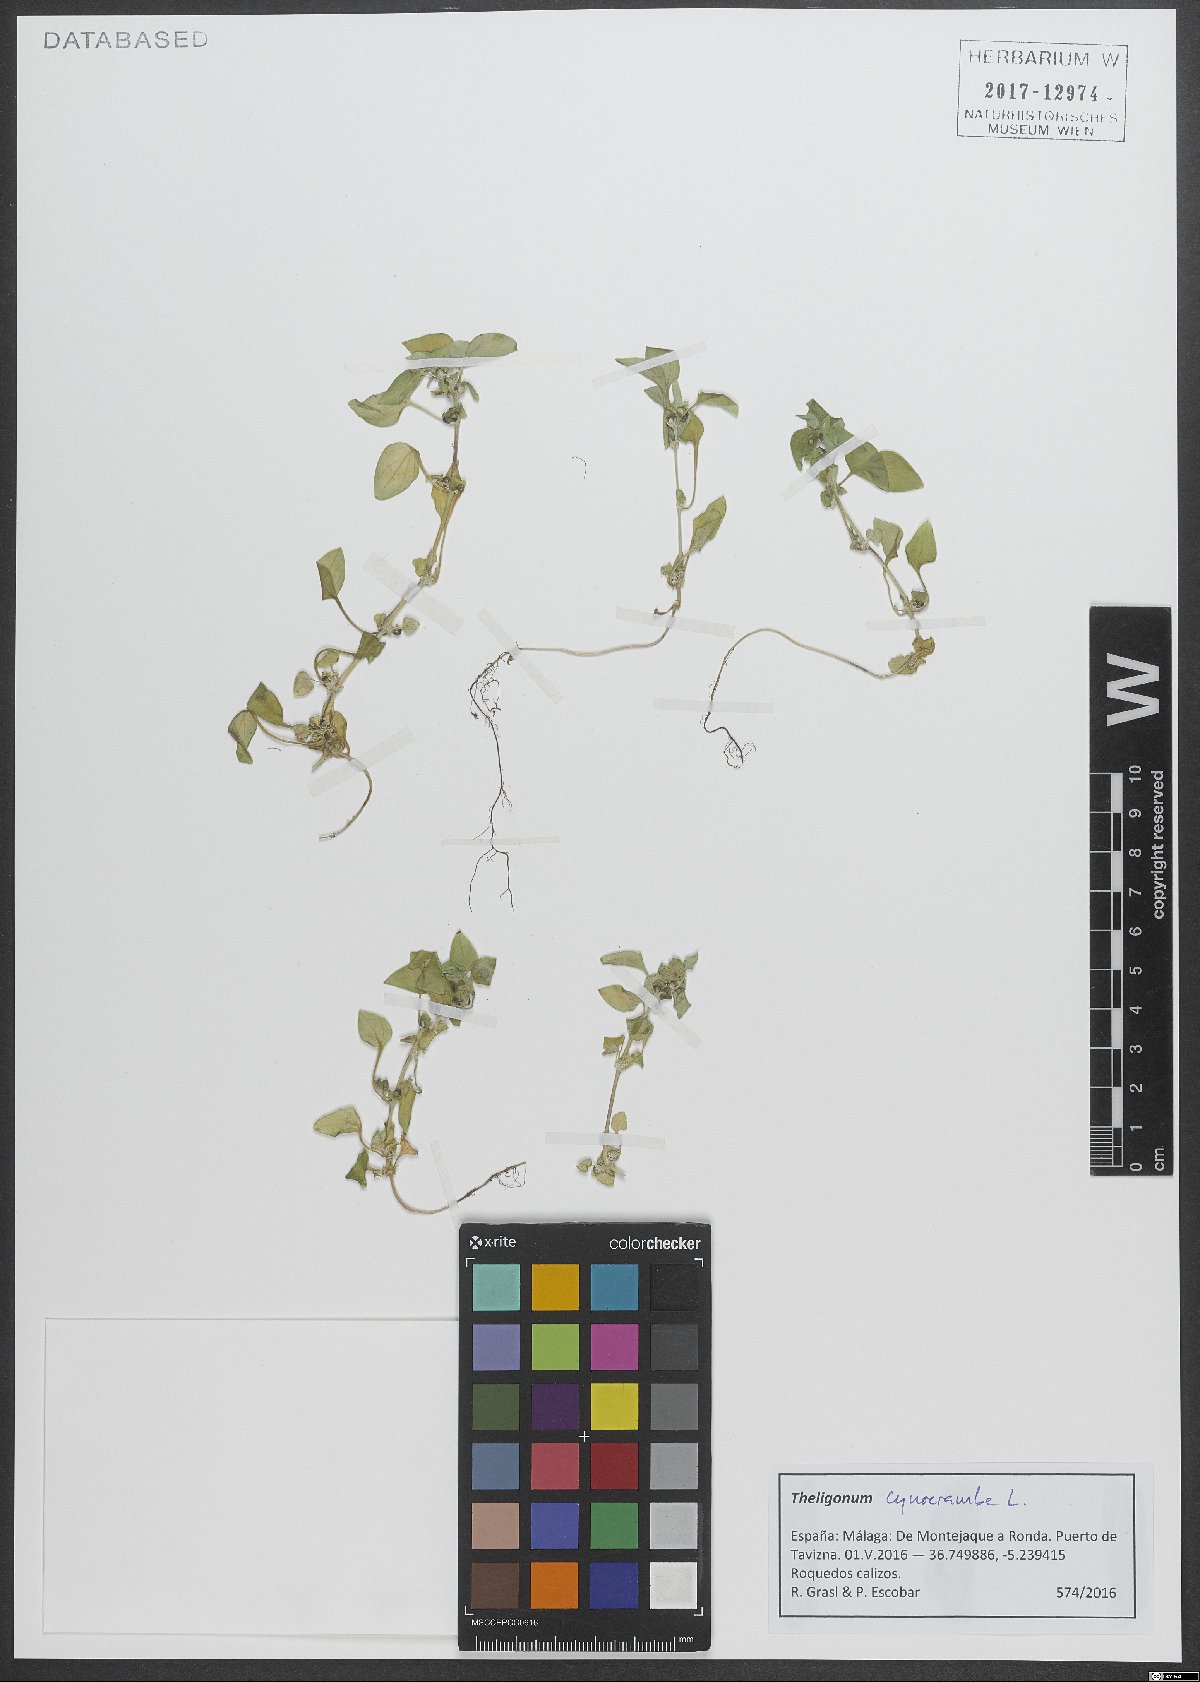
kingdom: Plantae
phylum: Tracheophyta
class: Magnoliopsida
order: Gentianales
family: Rubiaceae
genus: Theligonum
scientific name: Theligonum cynocrambe
